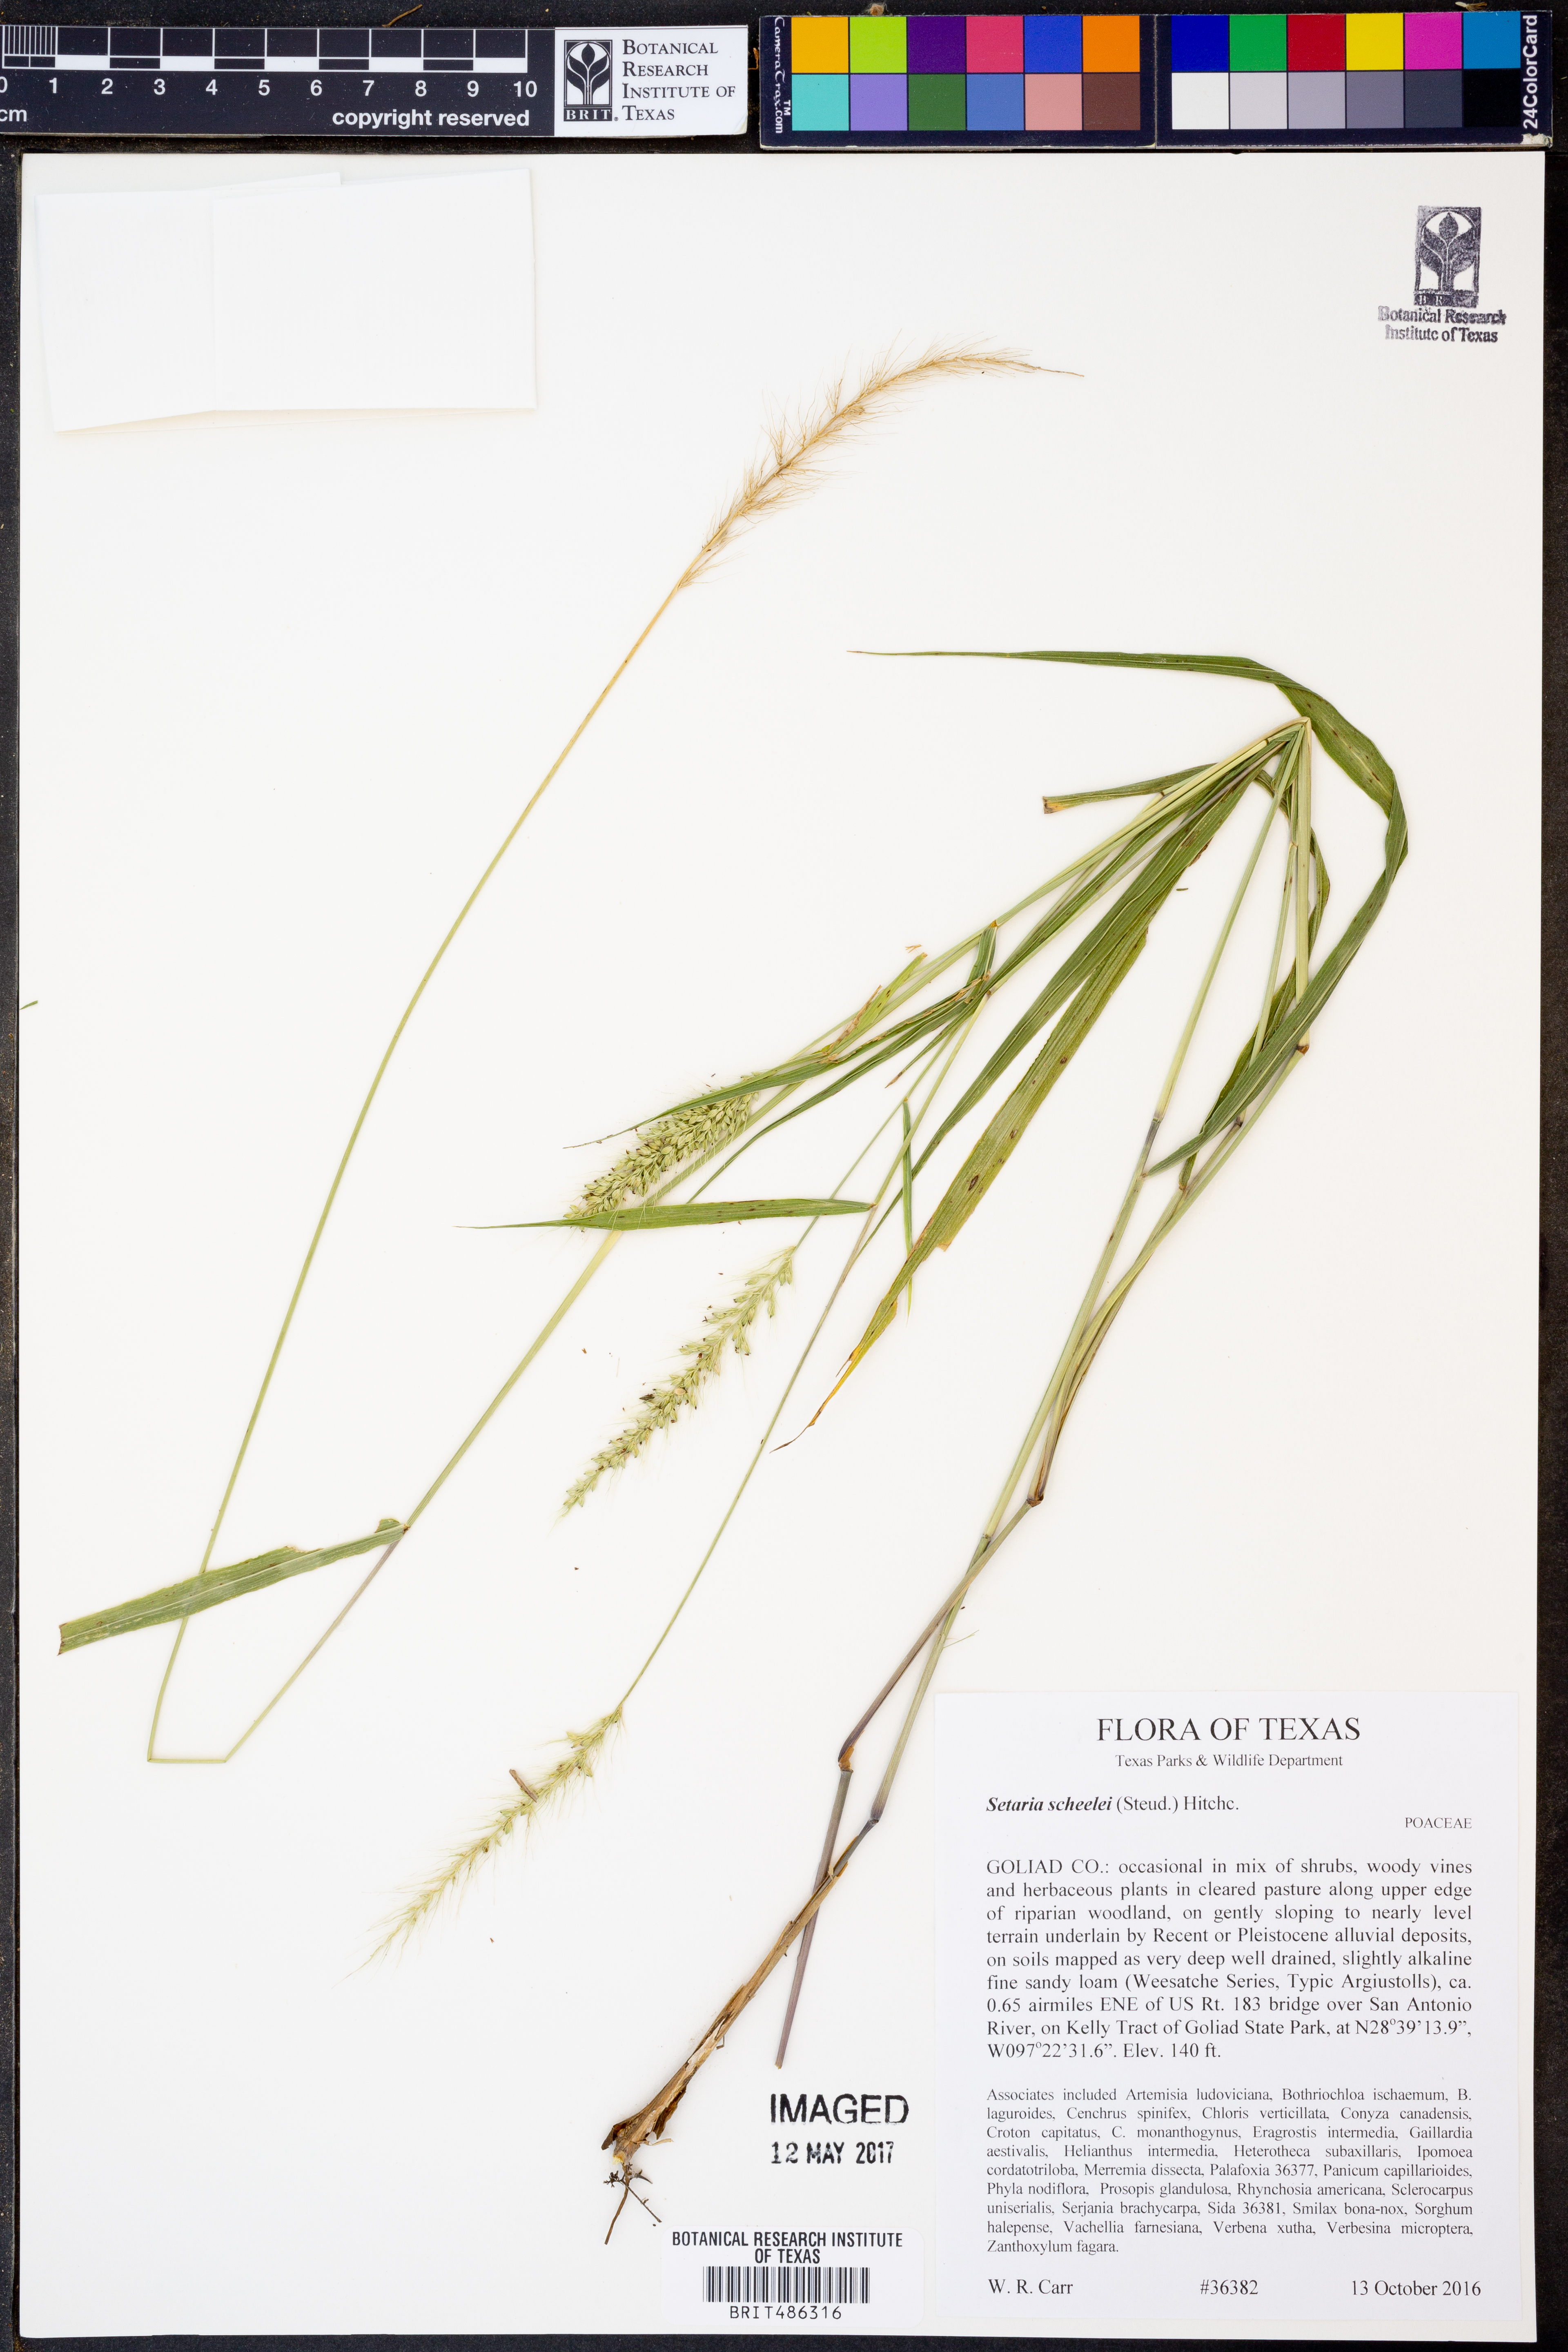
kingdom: Plantae
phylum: Tracheophyta
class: Liliopsida
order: Poales
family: Poaceae
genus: Setaria
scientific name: Setaria scheelei
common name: Southwestern bristle grass
